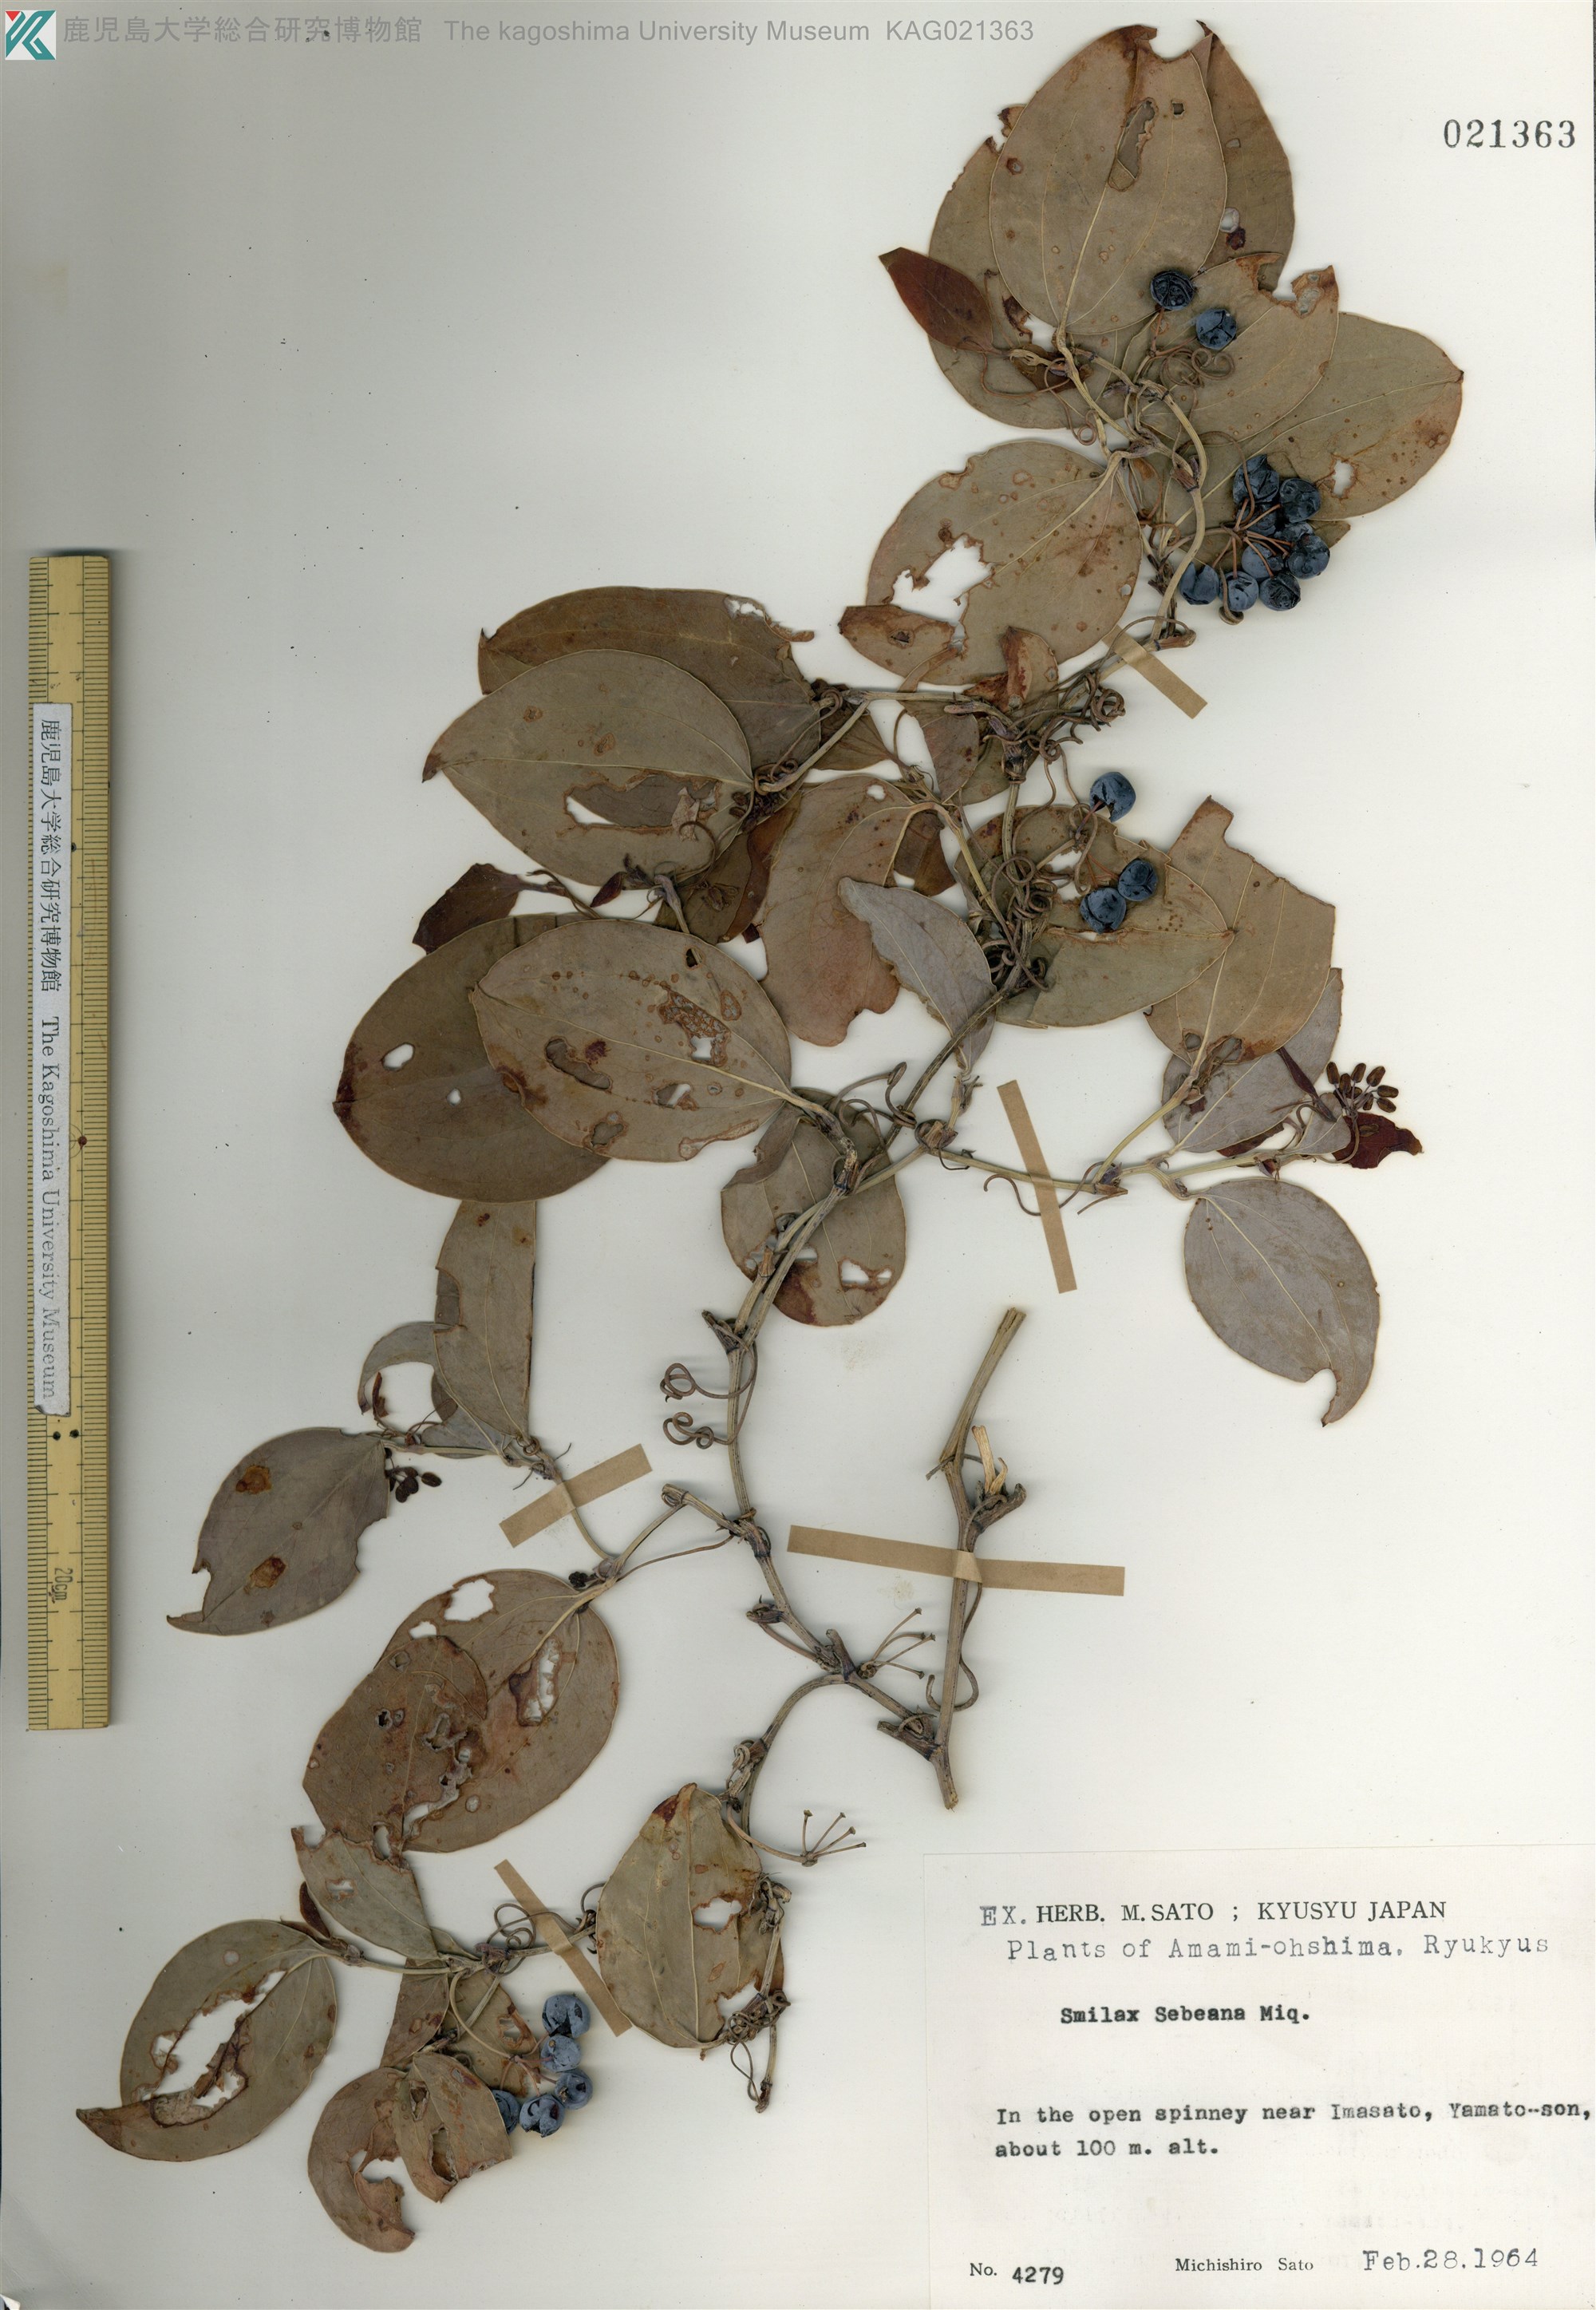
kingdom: Plantae
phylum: Tracheophyta
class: Liliopsida
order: Liliales
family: Smilacaceae
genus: Smilax
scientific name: Smilax sebeana
